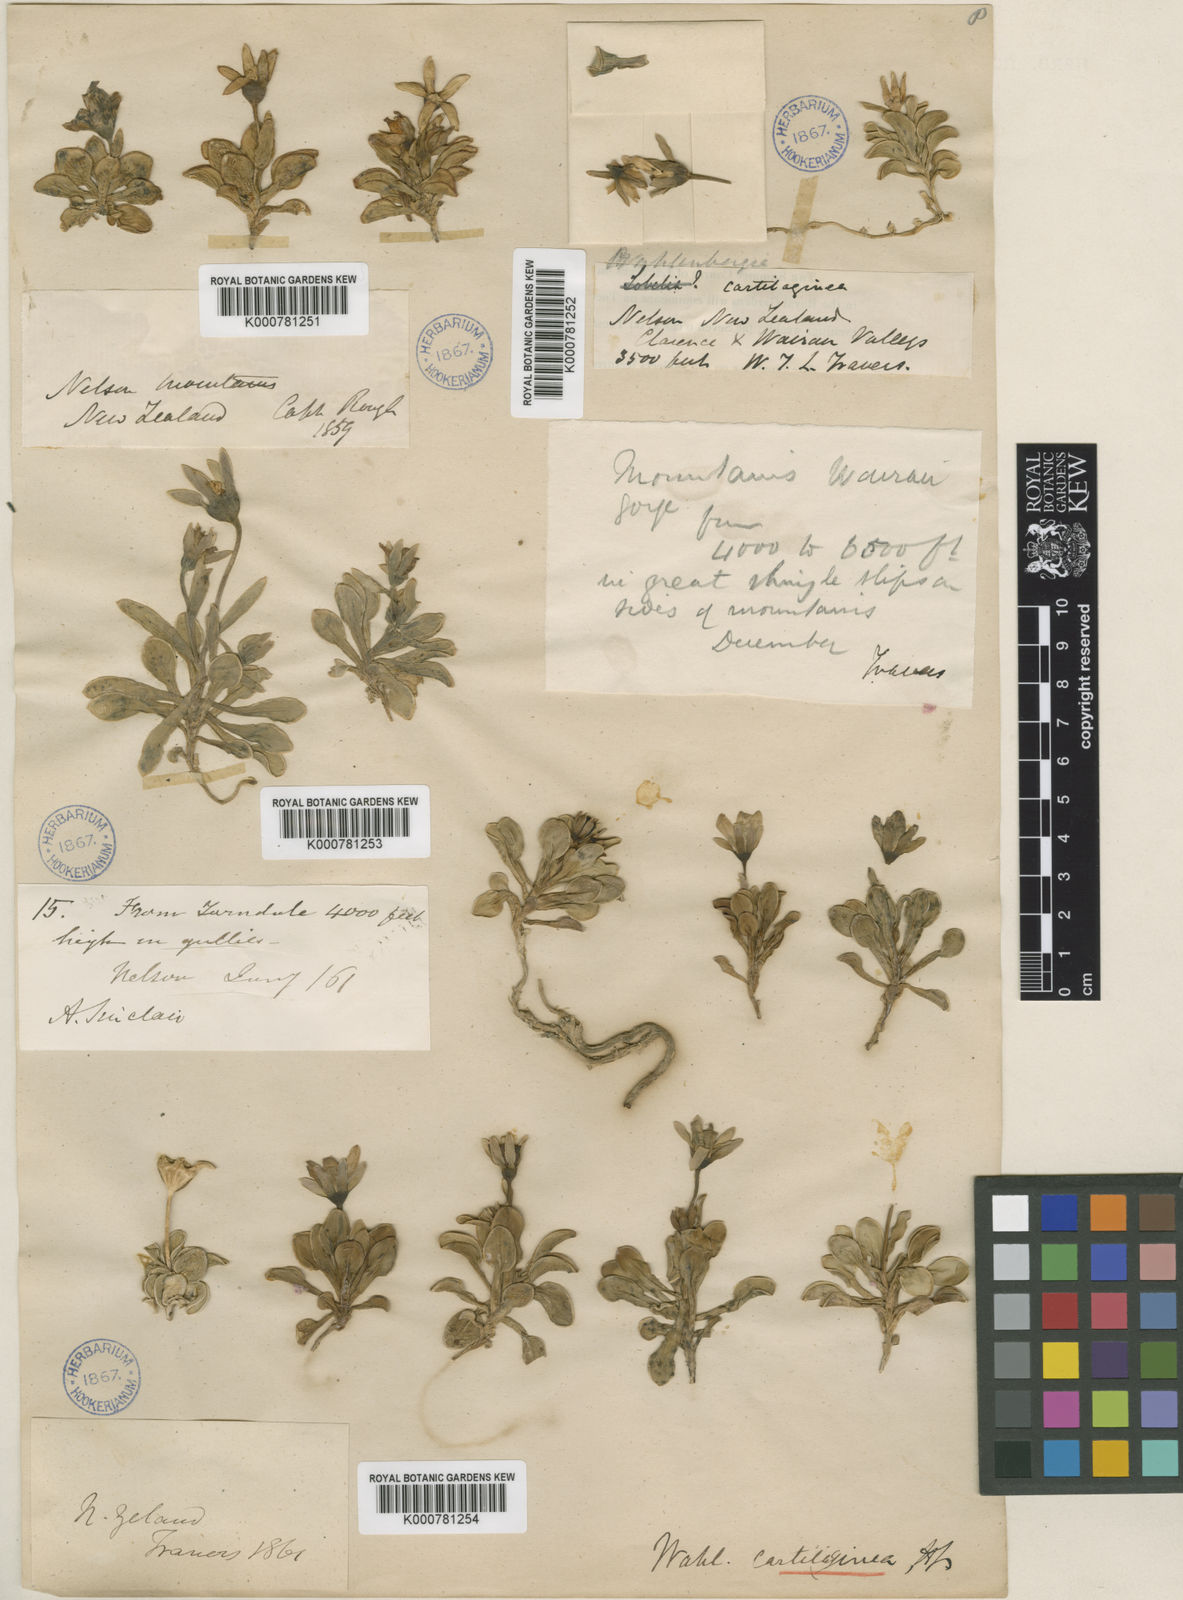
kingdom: Plantae
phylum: Tracheophyta
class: Magnoliopsida
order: Asterales
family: Campanulaceae
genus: Wahlenbergia
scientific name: Wahlenbergia cartilaginea
